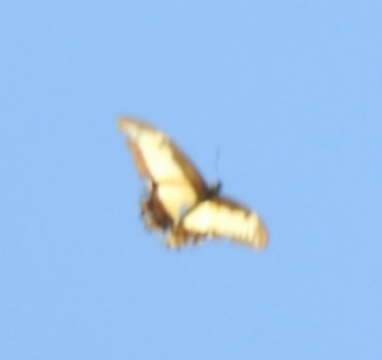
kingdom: Animalia
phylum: Arthropoda
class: Insecta
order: Lepidoptera
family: Papilionidae
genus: Papilio
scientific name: Papilio androgeus
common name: Androgeus Swallowtail
